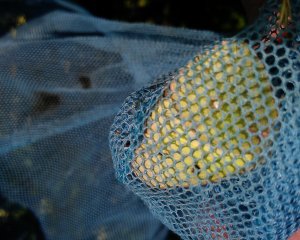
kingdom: Animalia
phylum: Arthropoda
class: Insecta
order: Lepidoptera
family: Pieridae
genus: Colias
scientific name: Colias philodice
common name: Clouded Sulphur
